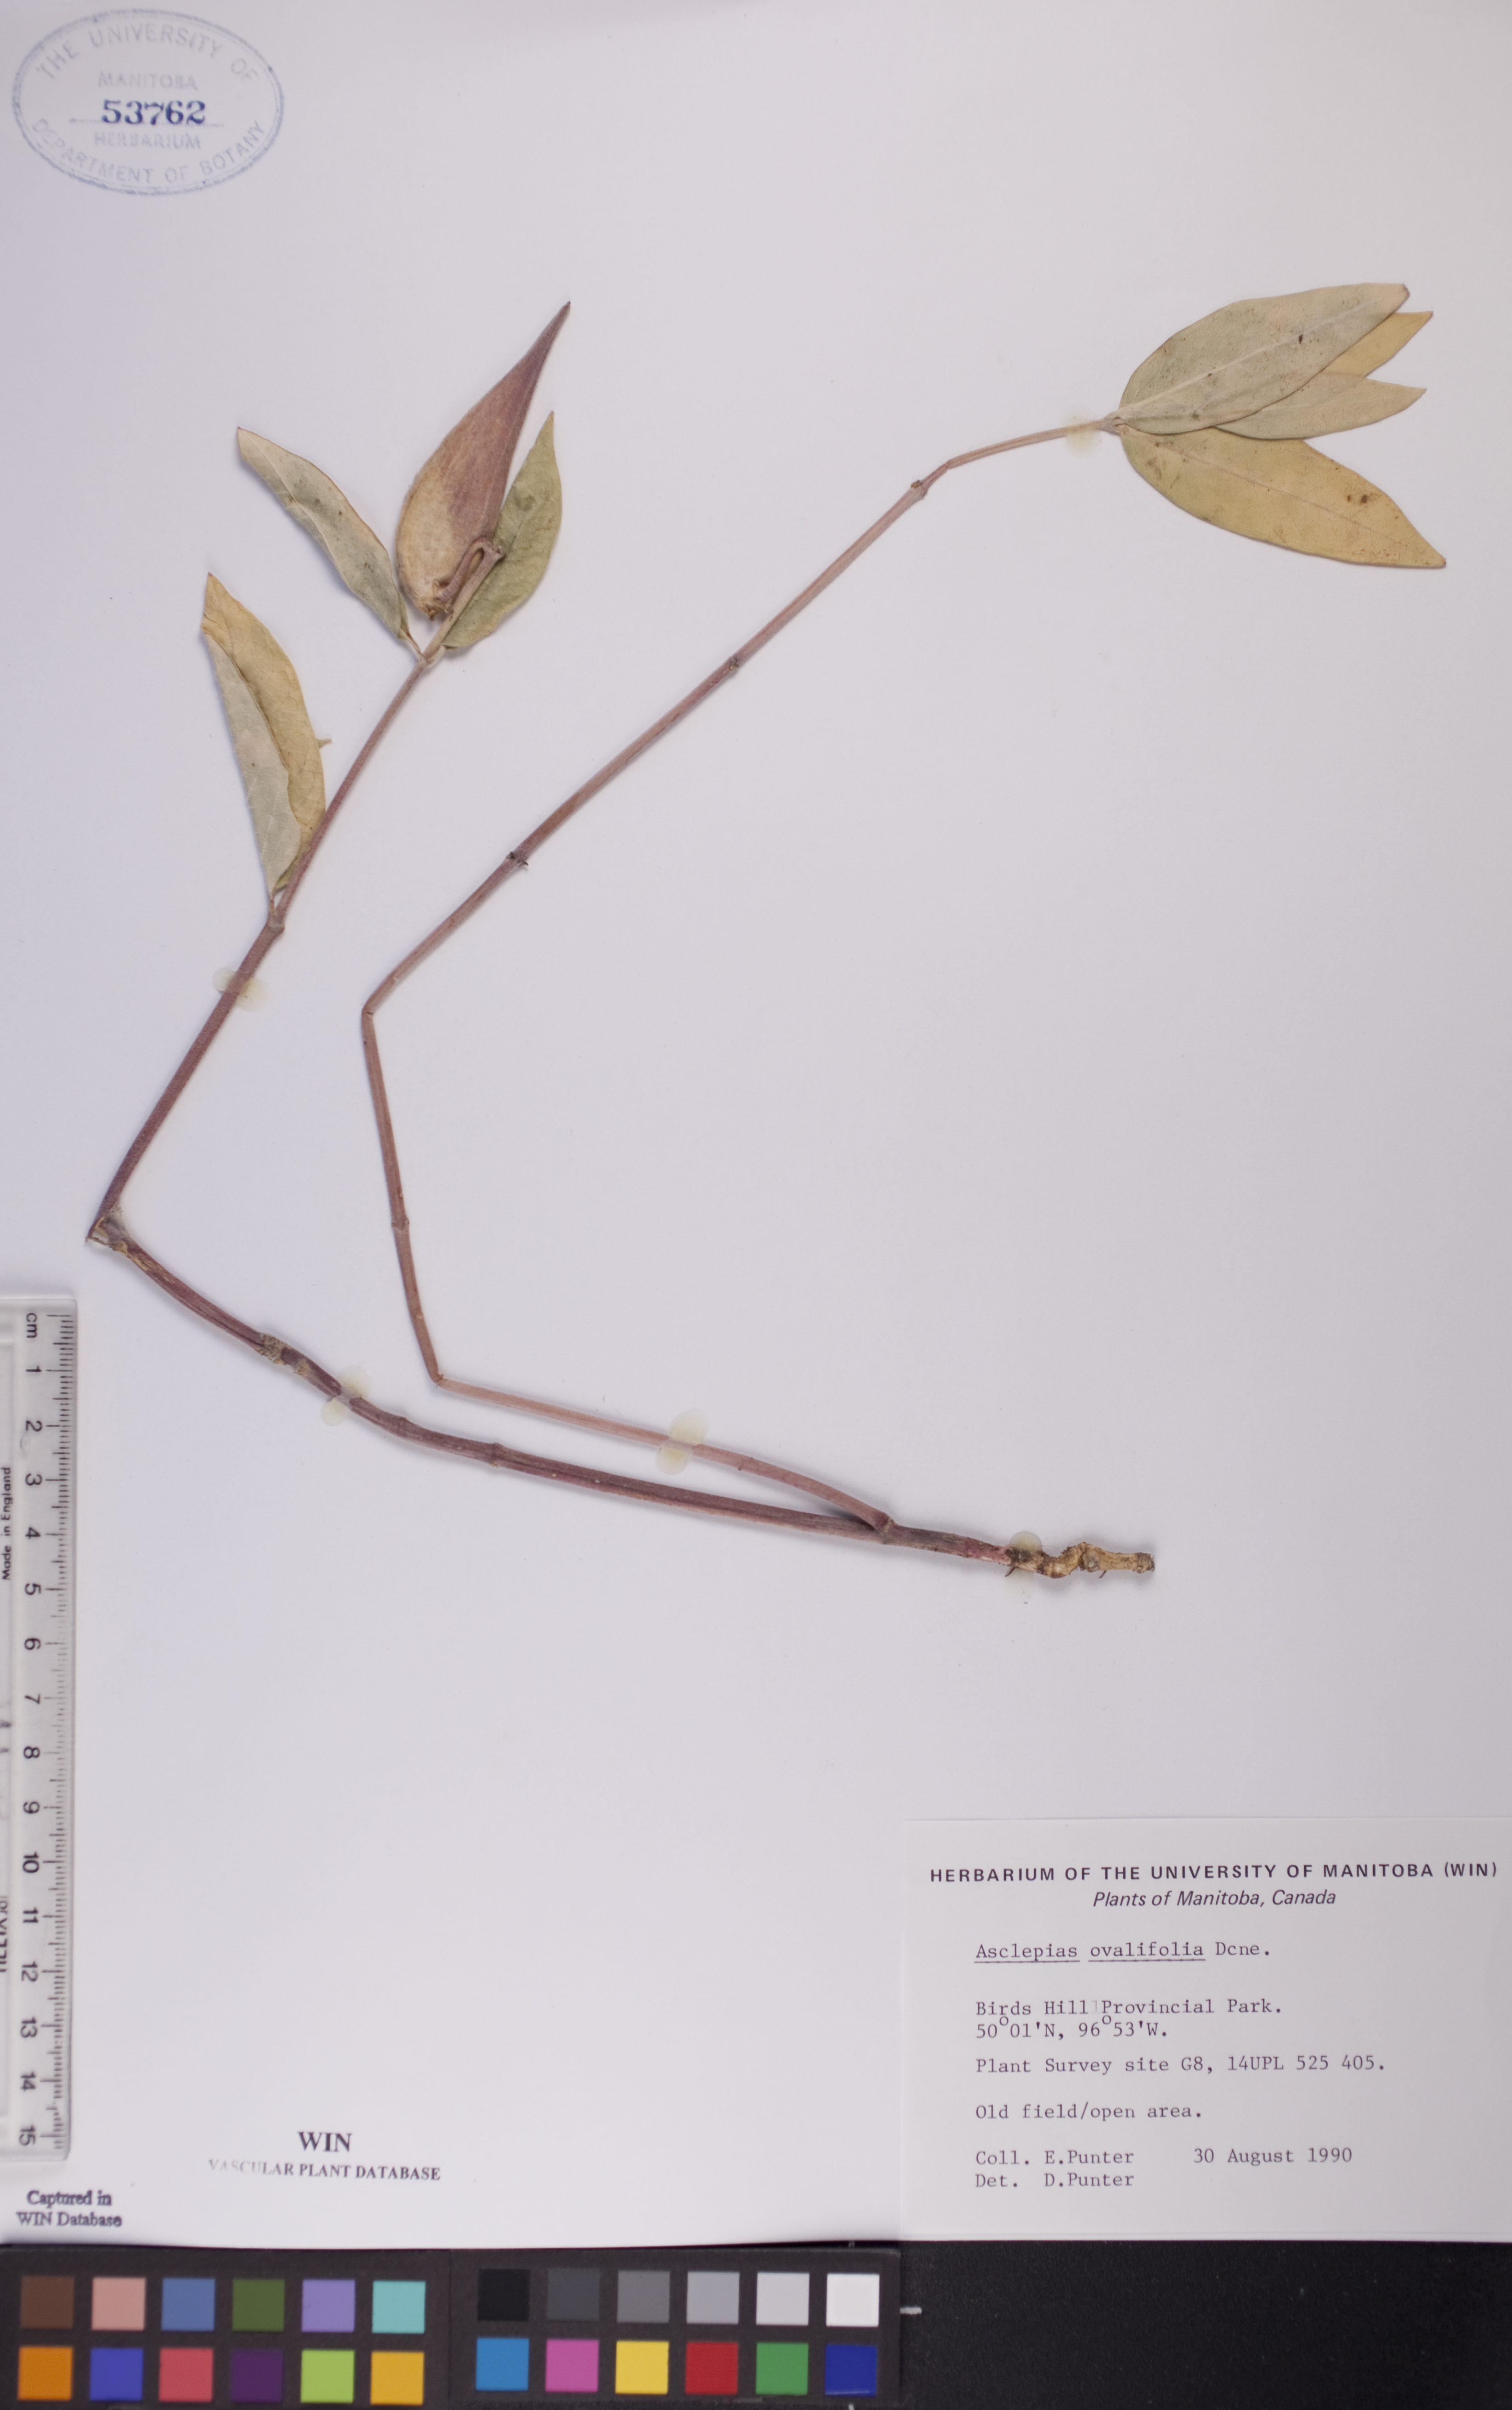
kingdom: Plantae
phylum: Tracheophyta
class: Magnoliopsida
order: Gentianales
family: Apocynaceae
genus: Asclepias
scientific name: Asclepias ovalifolia
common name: Dwarf milkweed
